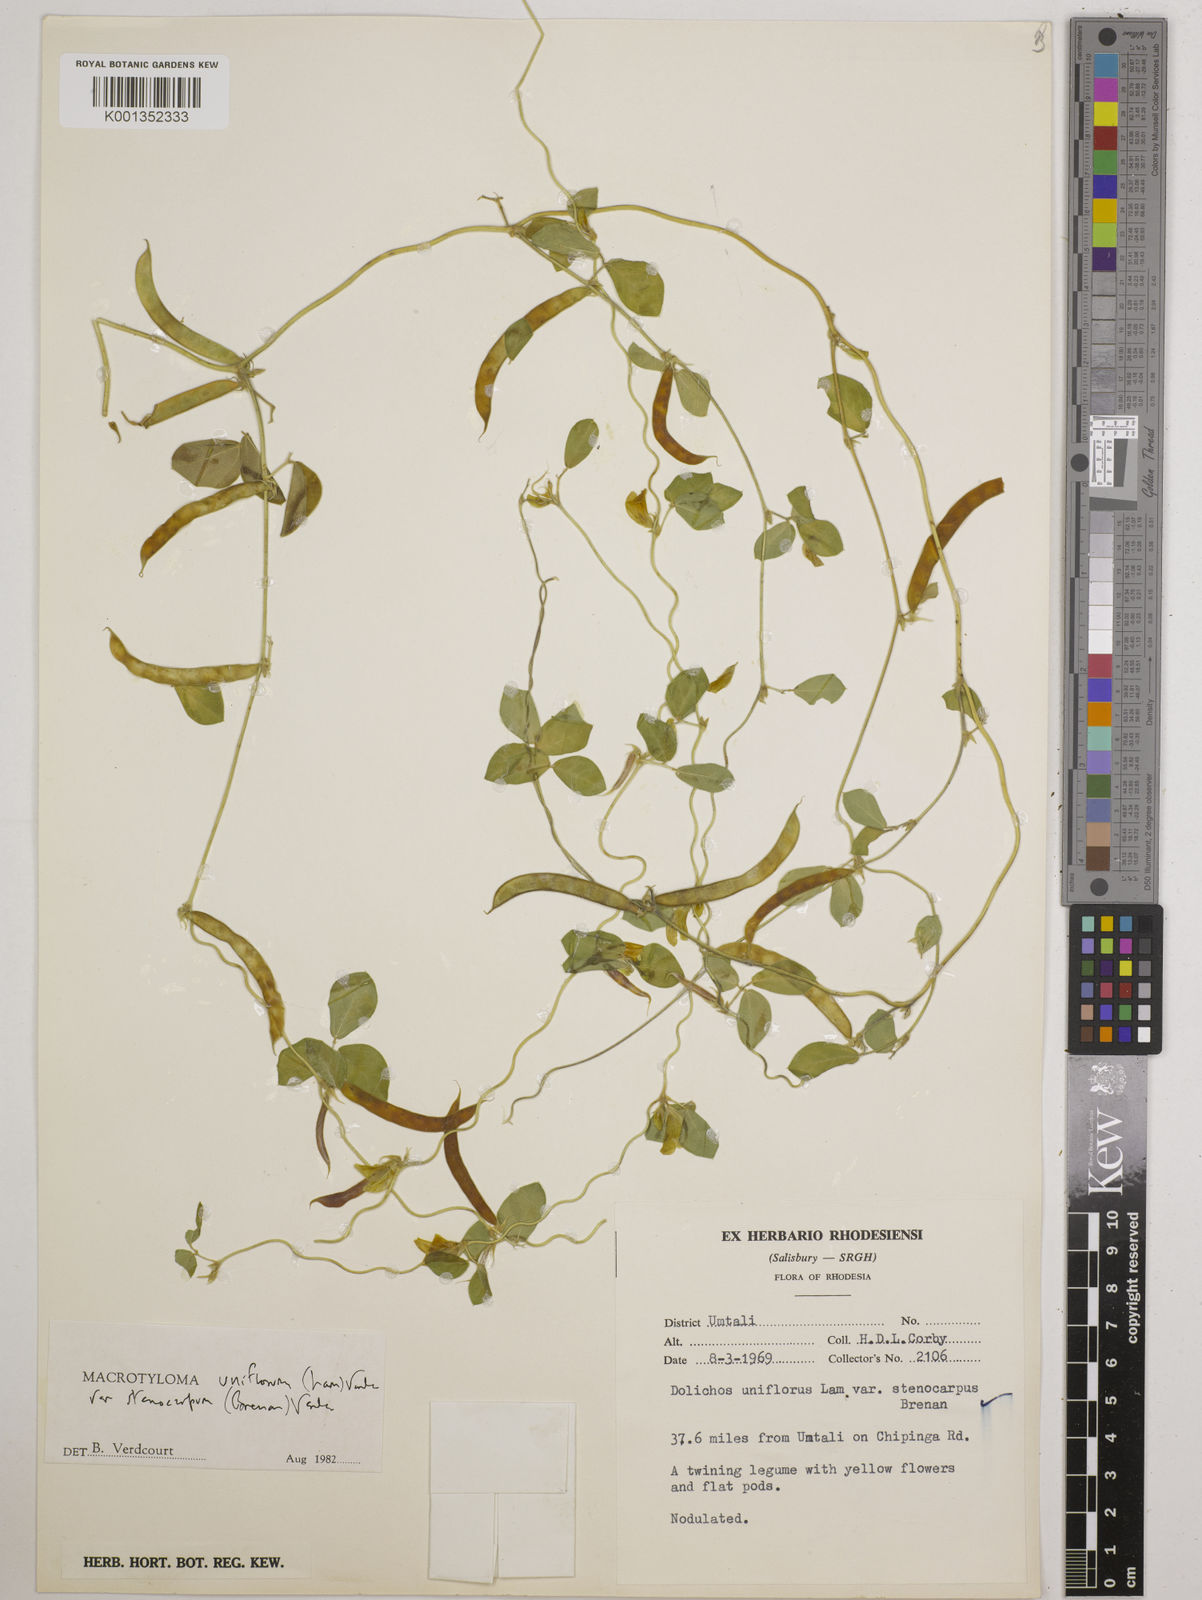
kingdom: Plantae
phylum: Tracheophyta
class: Magnoliopsida
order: Fabales
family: Fabaceae
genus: Macrotyloma
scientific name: Macrotyloma
